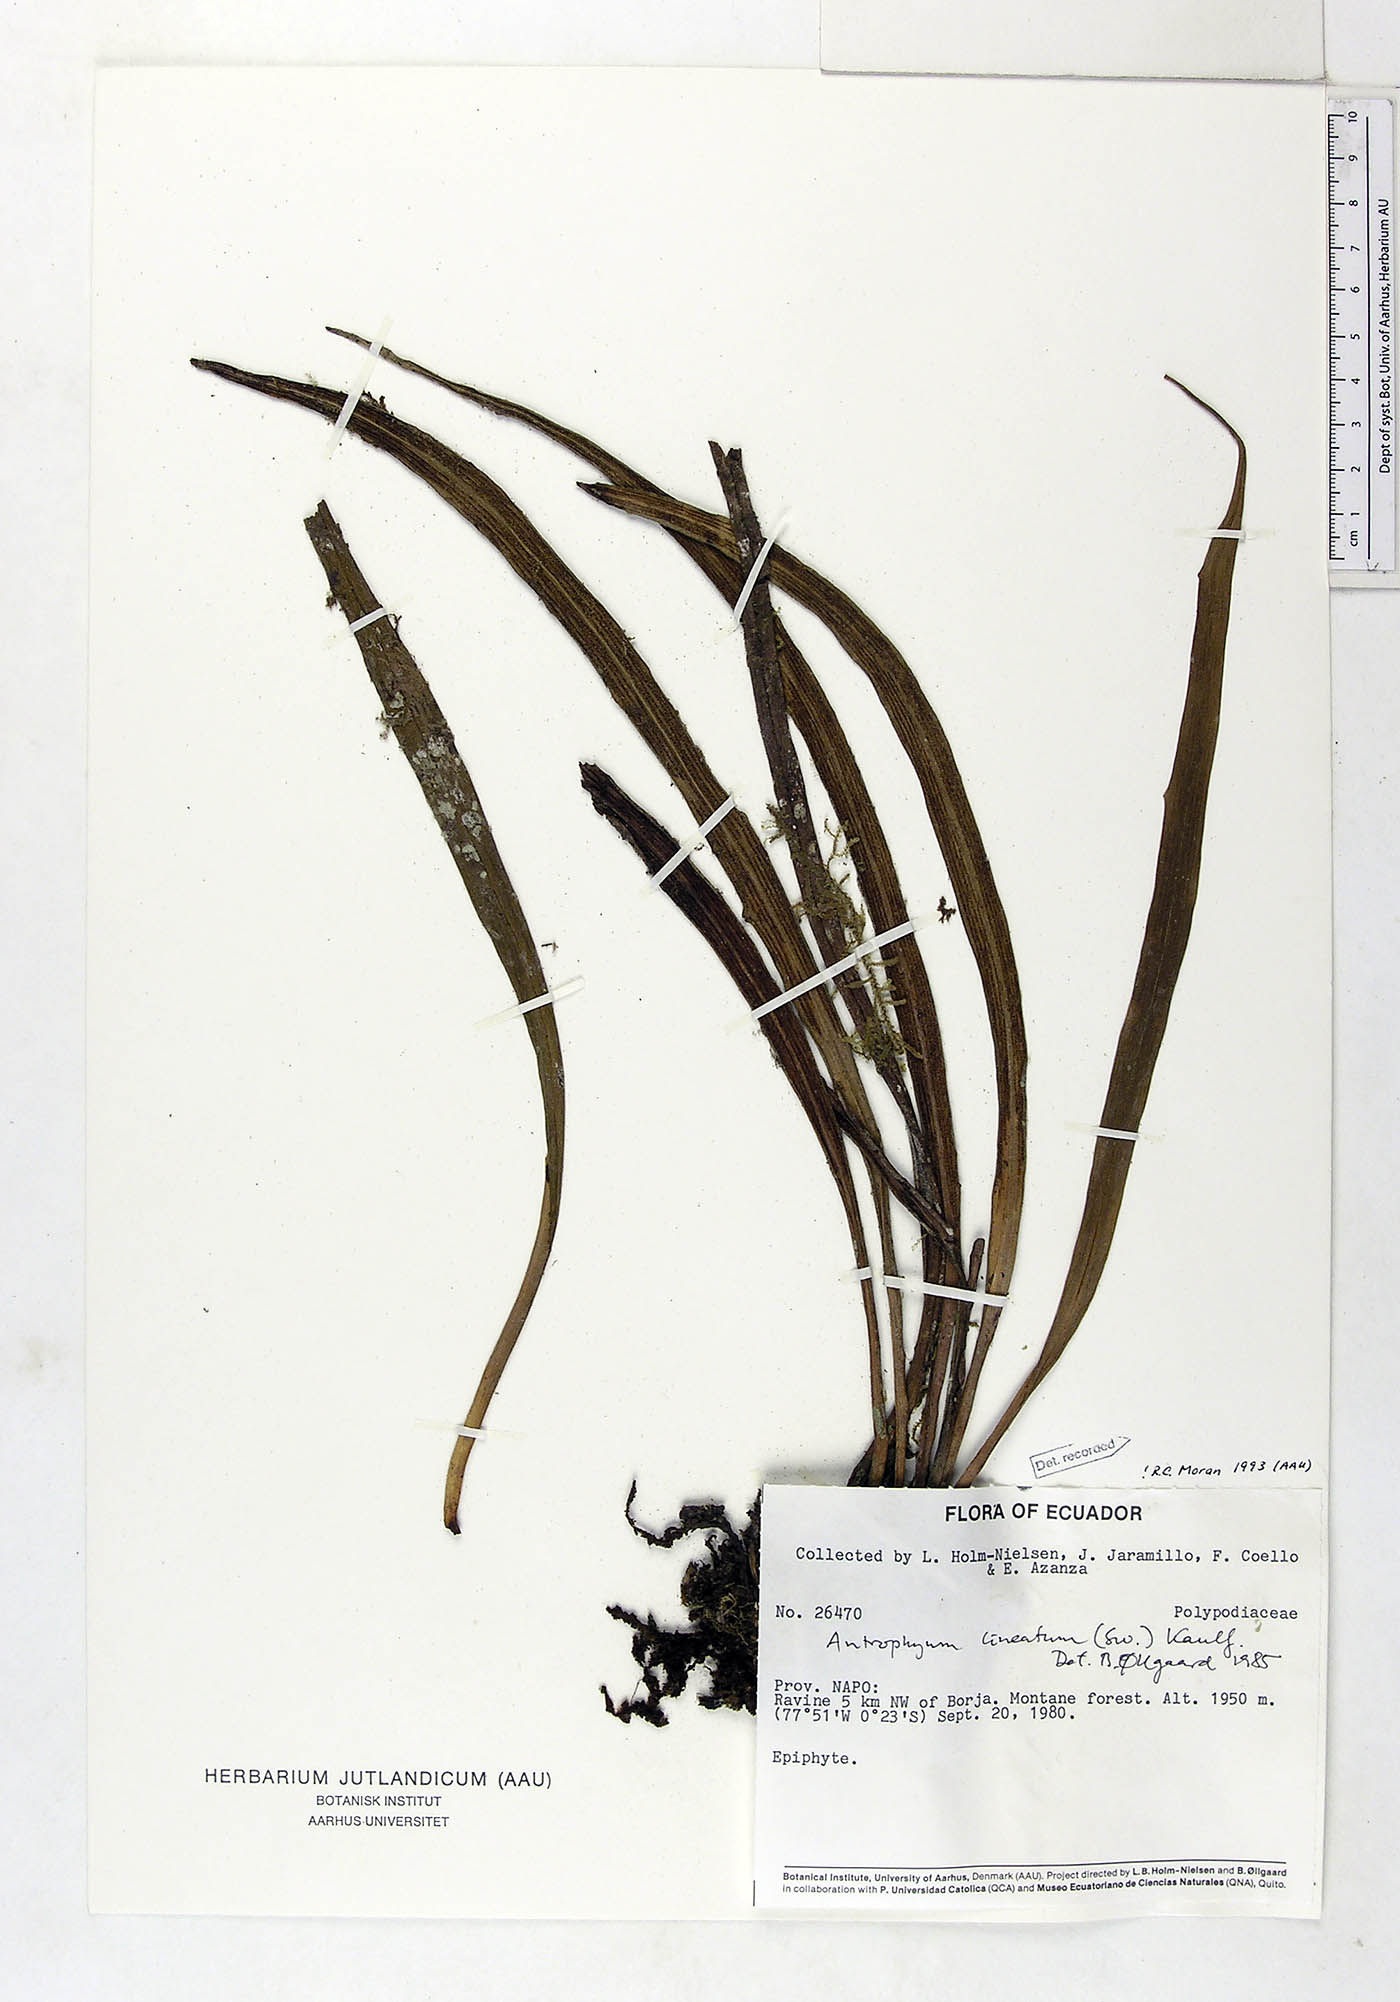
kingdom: Plantae
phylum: Tracheophyta
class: Polypodiopsida
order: Polypodiales
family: Pteridaceae
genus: Polytaenium
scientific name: Polytaenium lineatum
